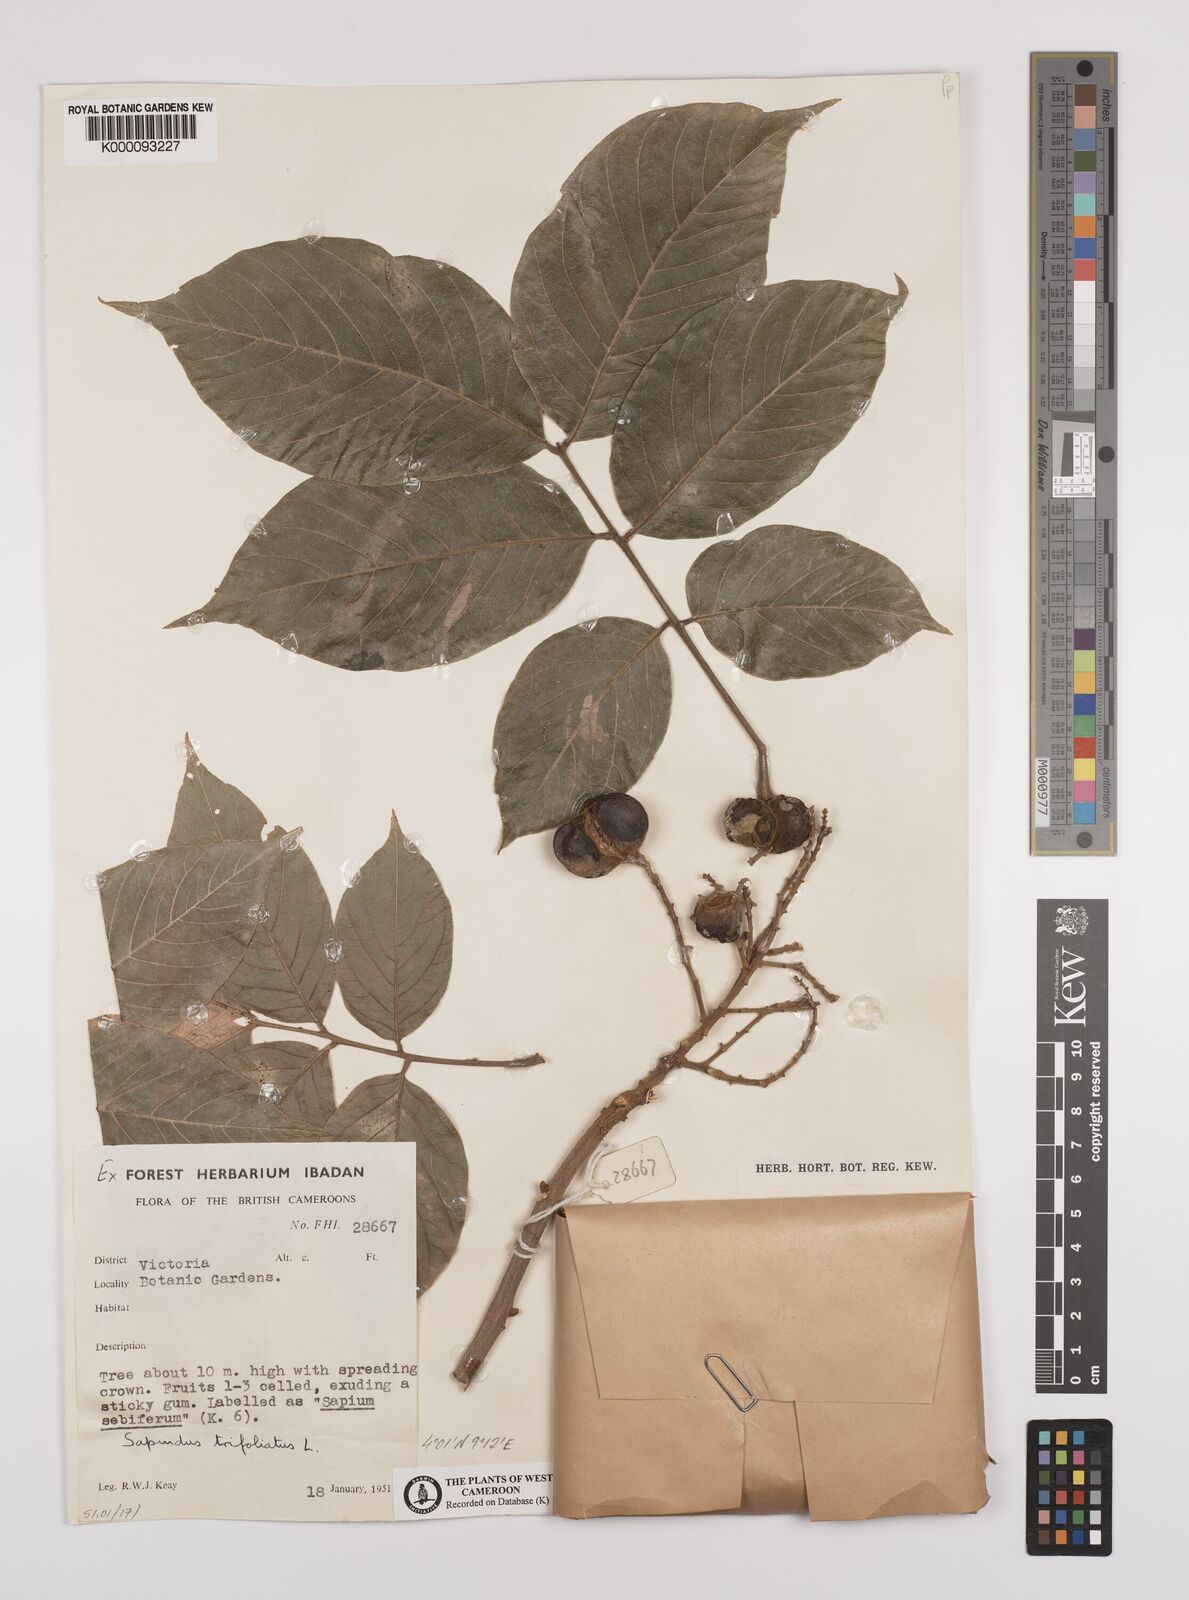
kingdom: Plantae
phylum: Tracheophyta
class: Magnoliopsida
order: Sapindales
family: Sapindaceae
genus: Sapindus
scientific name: Sapindus trifoliatus
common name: Three-leaf soapberry
